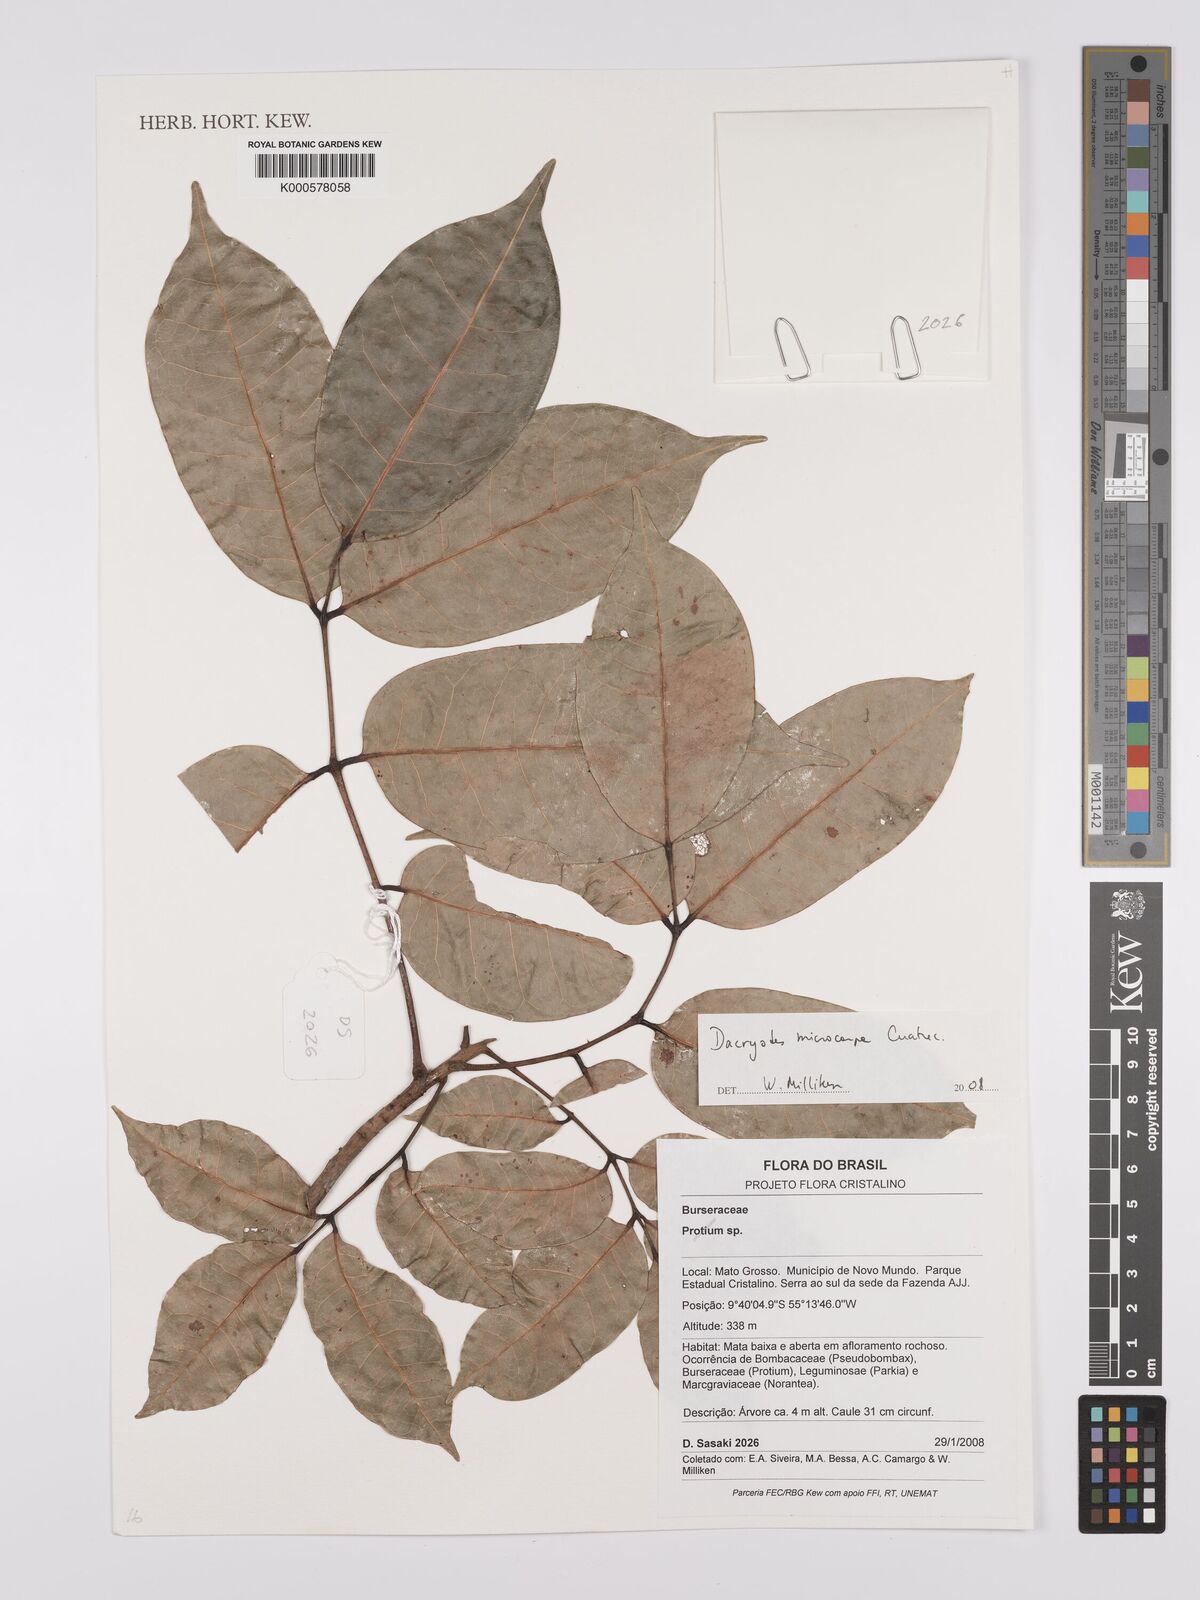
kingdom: Plantae
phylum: Tracheophyta
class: Magnoliopsida
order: Sapindales
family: Burseraceae
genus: Dacryodes
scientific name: Dacryodes microcarpa
